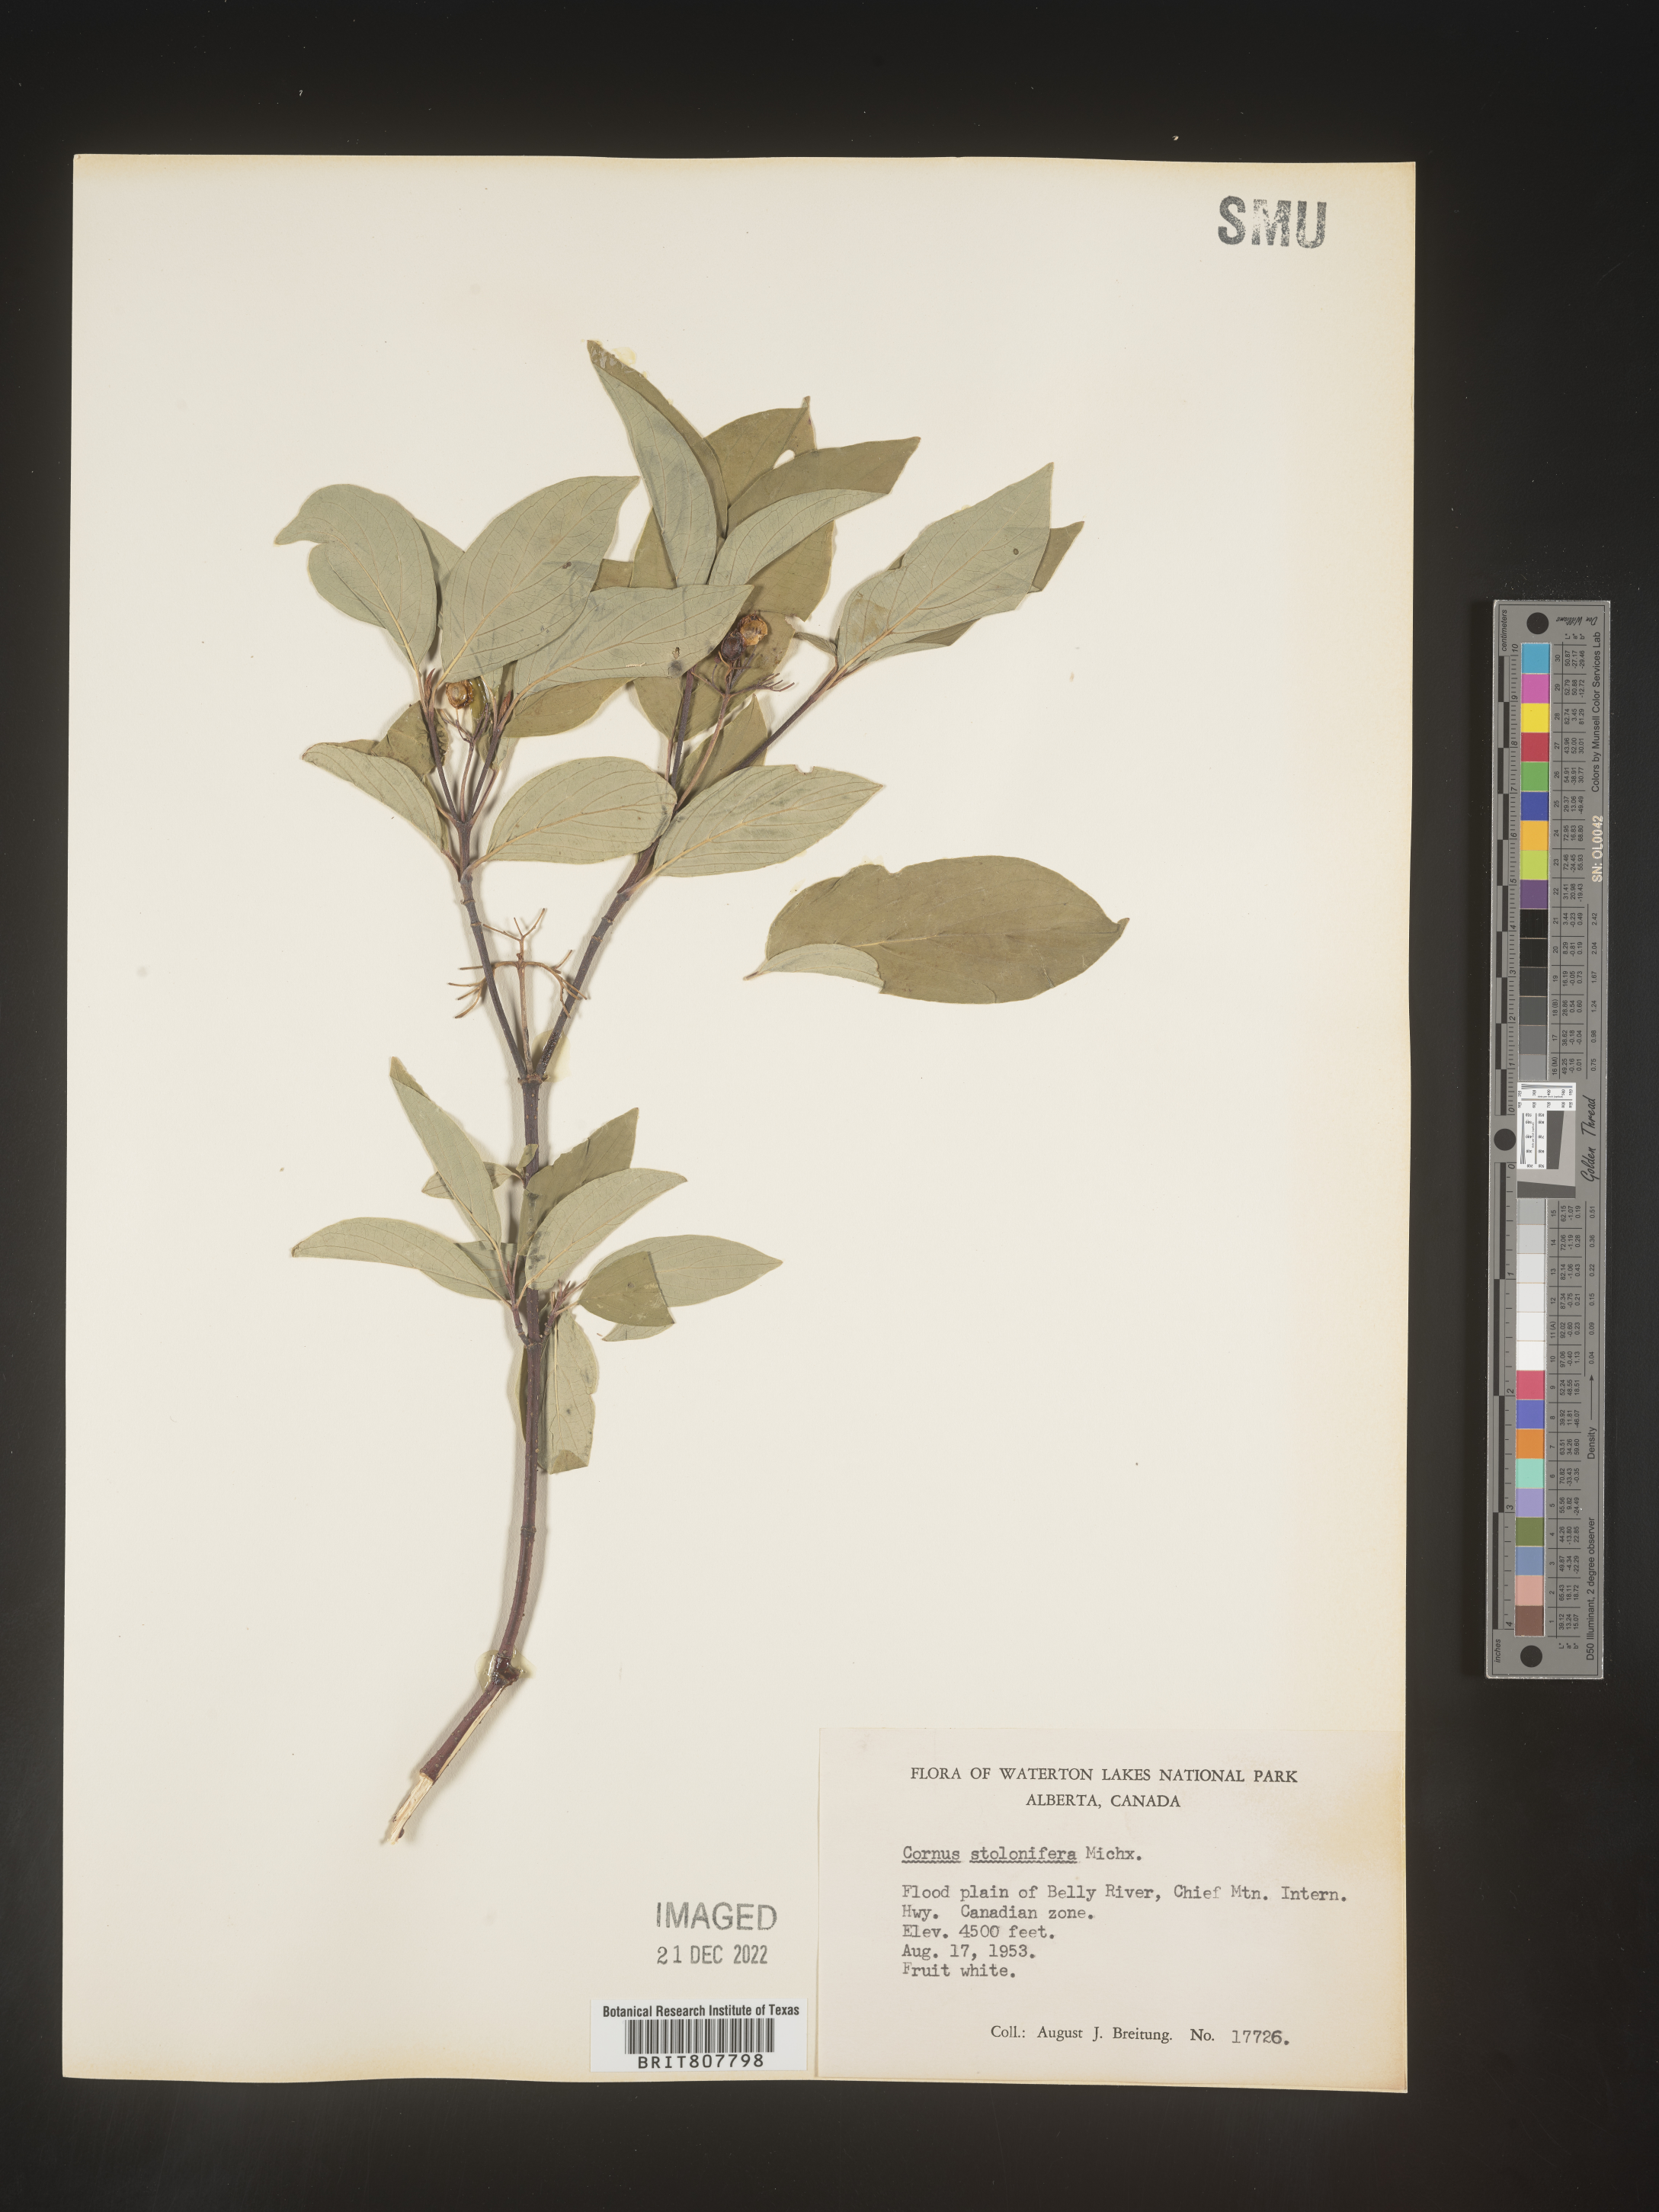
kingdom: Plantae
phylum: Tracheophyta
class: Magnoliopsida
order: Cornales
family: Cornaceae
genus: Cornus
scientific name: Cornus sericea
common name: Red-osier dogwood
